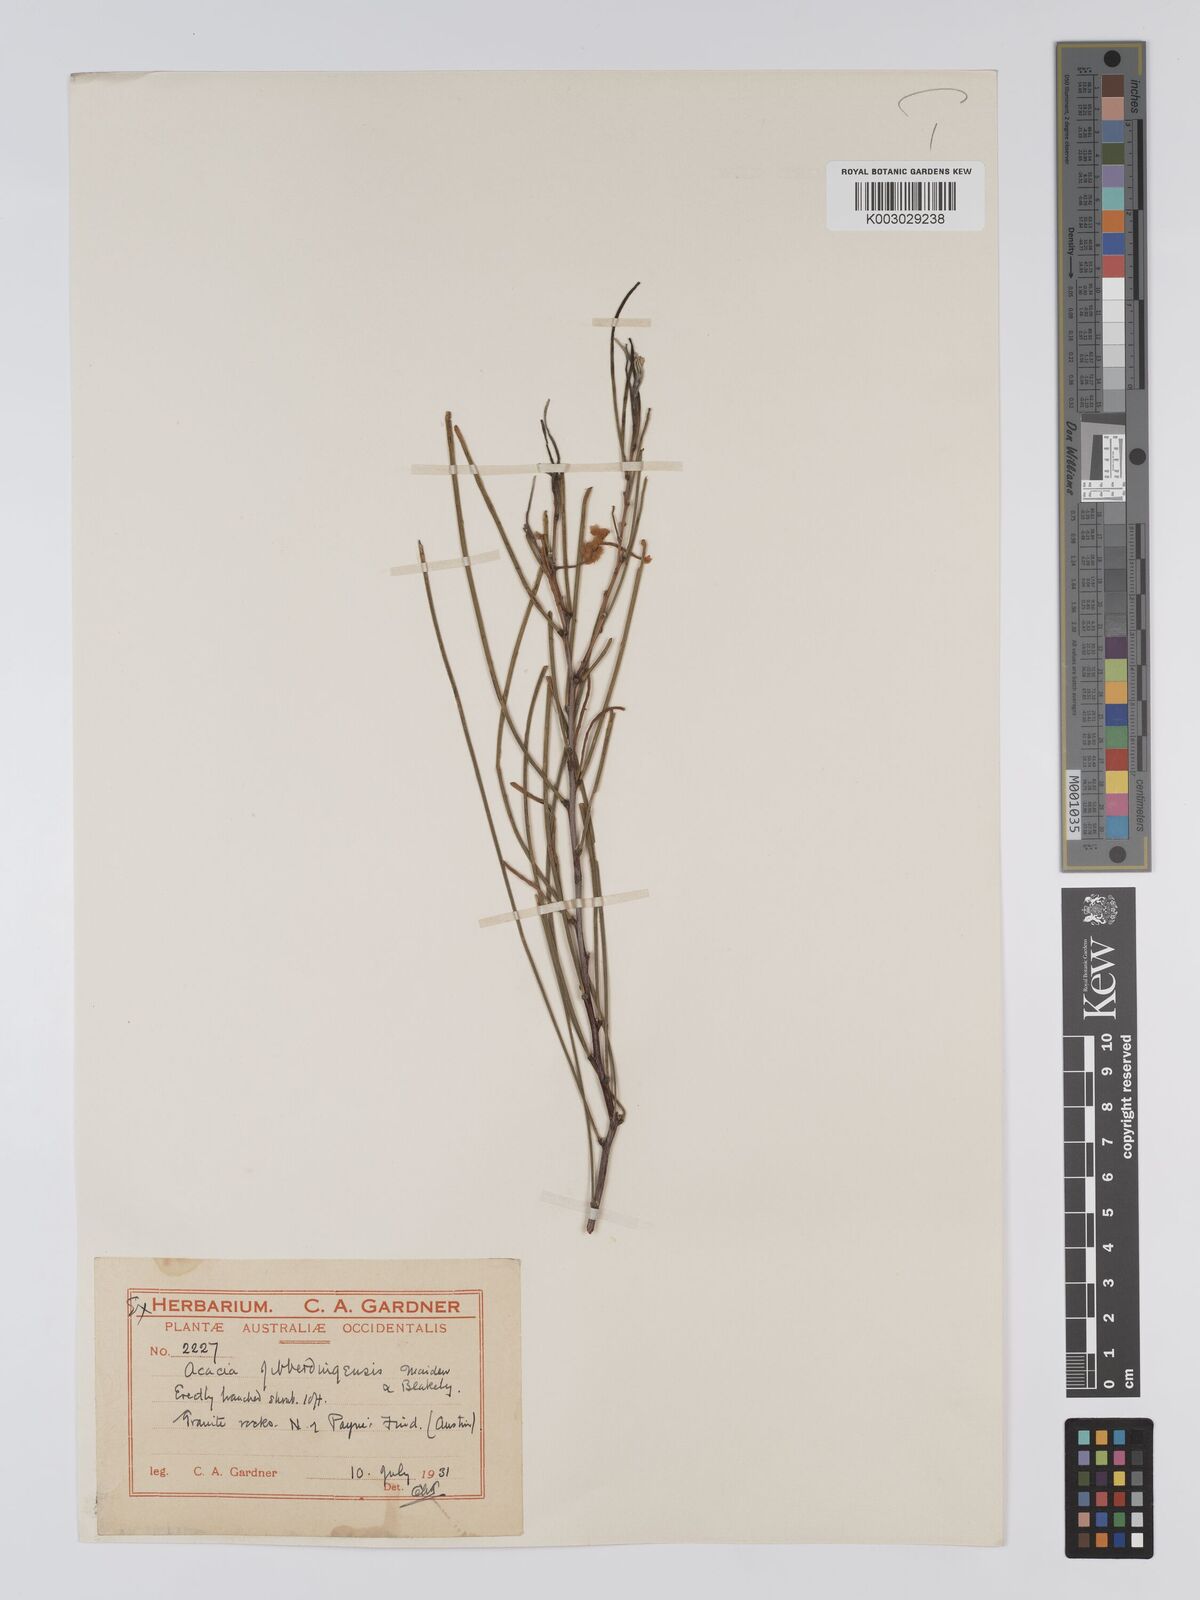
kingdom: Plantae
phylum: Tracheophyta
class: Magnoliopsida
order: Fabales
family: Fabaceae
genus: Acacia
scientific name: Acacia jibberdingensis
